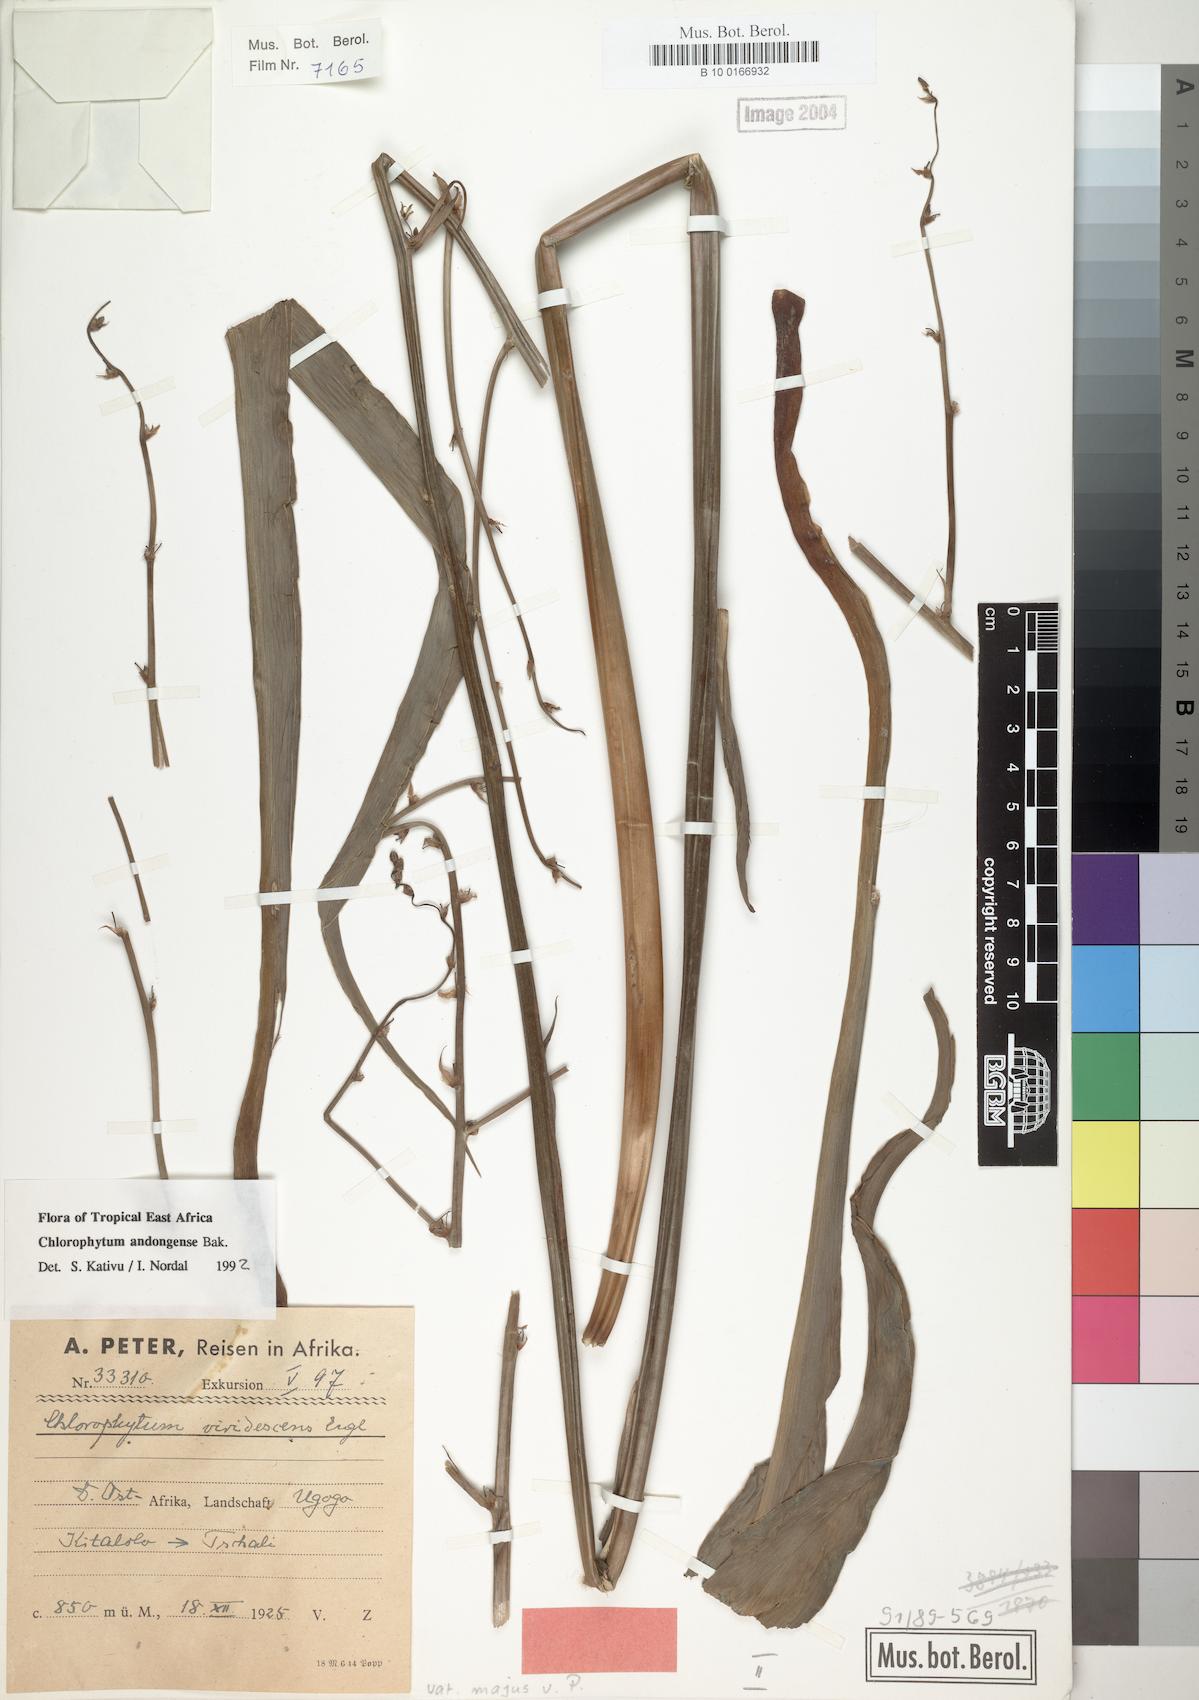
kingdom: Plantae
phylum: Tracheophyta
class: Liliopsida
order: Asparagales
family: Asparagaceae
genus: Chlorophytum
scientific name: Chlorophytum andongense
